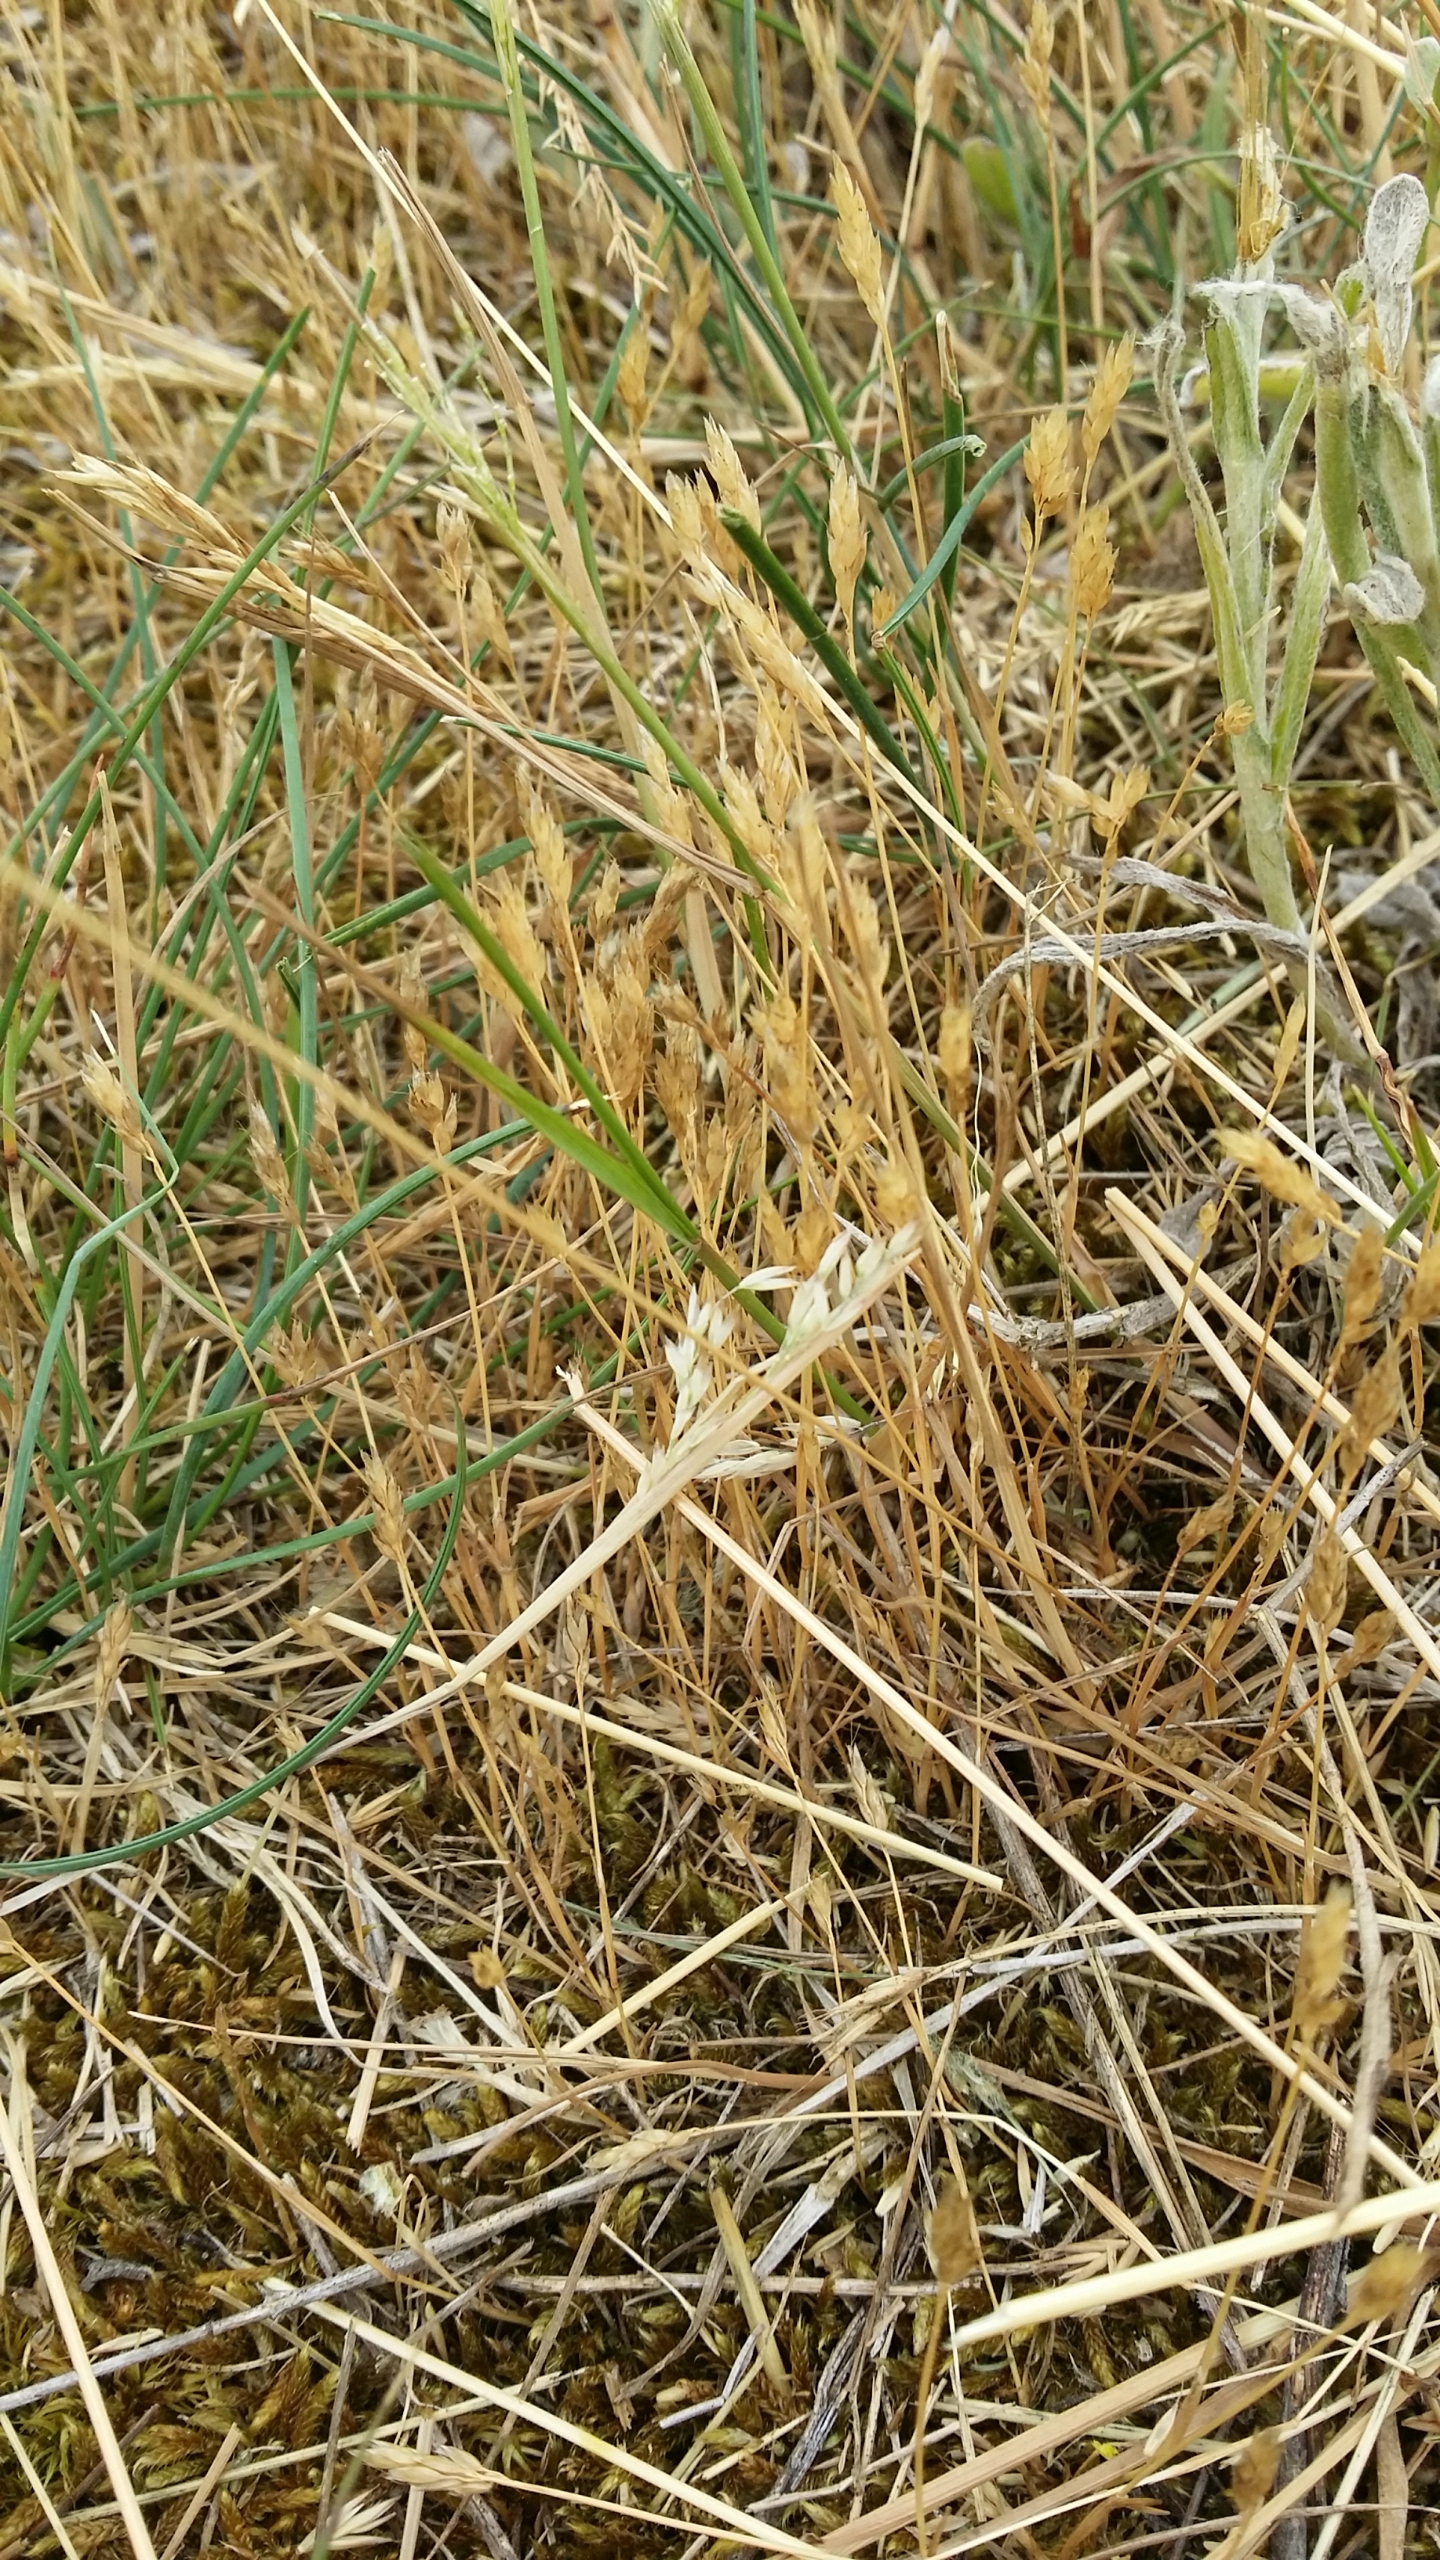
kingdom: Plantae
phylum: Tracheophyta
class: Liliopsida
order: Poales
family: Poaceae
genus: Aira
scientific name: Aira praecox
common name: Tidlig dværgbunke
